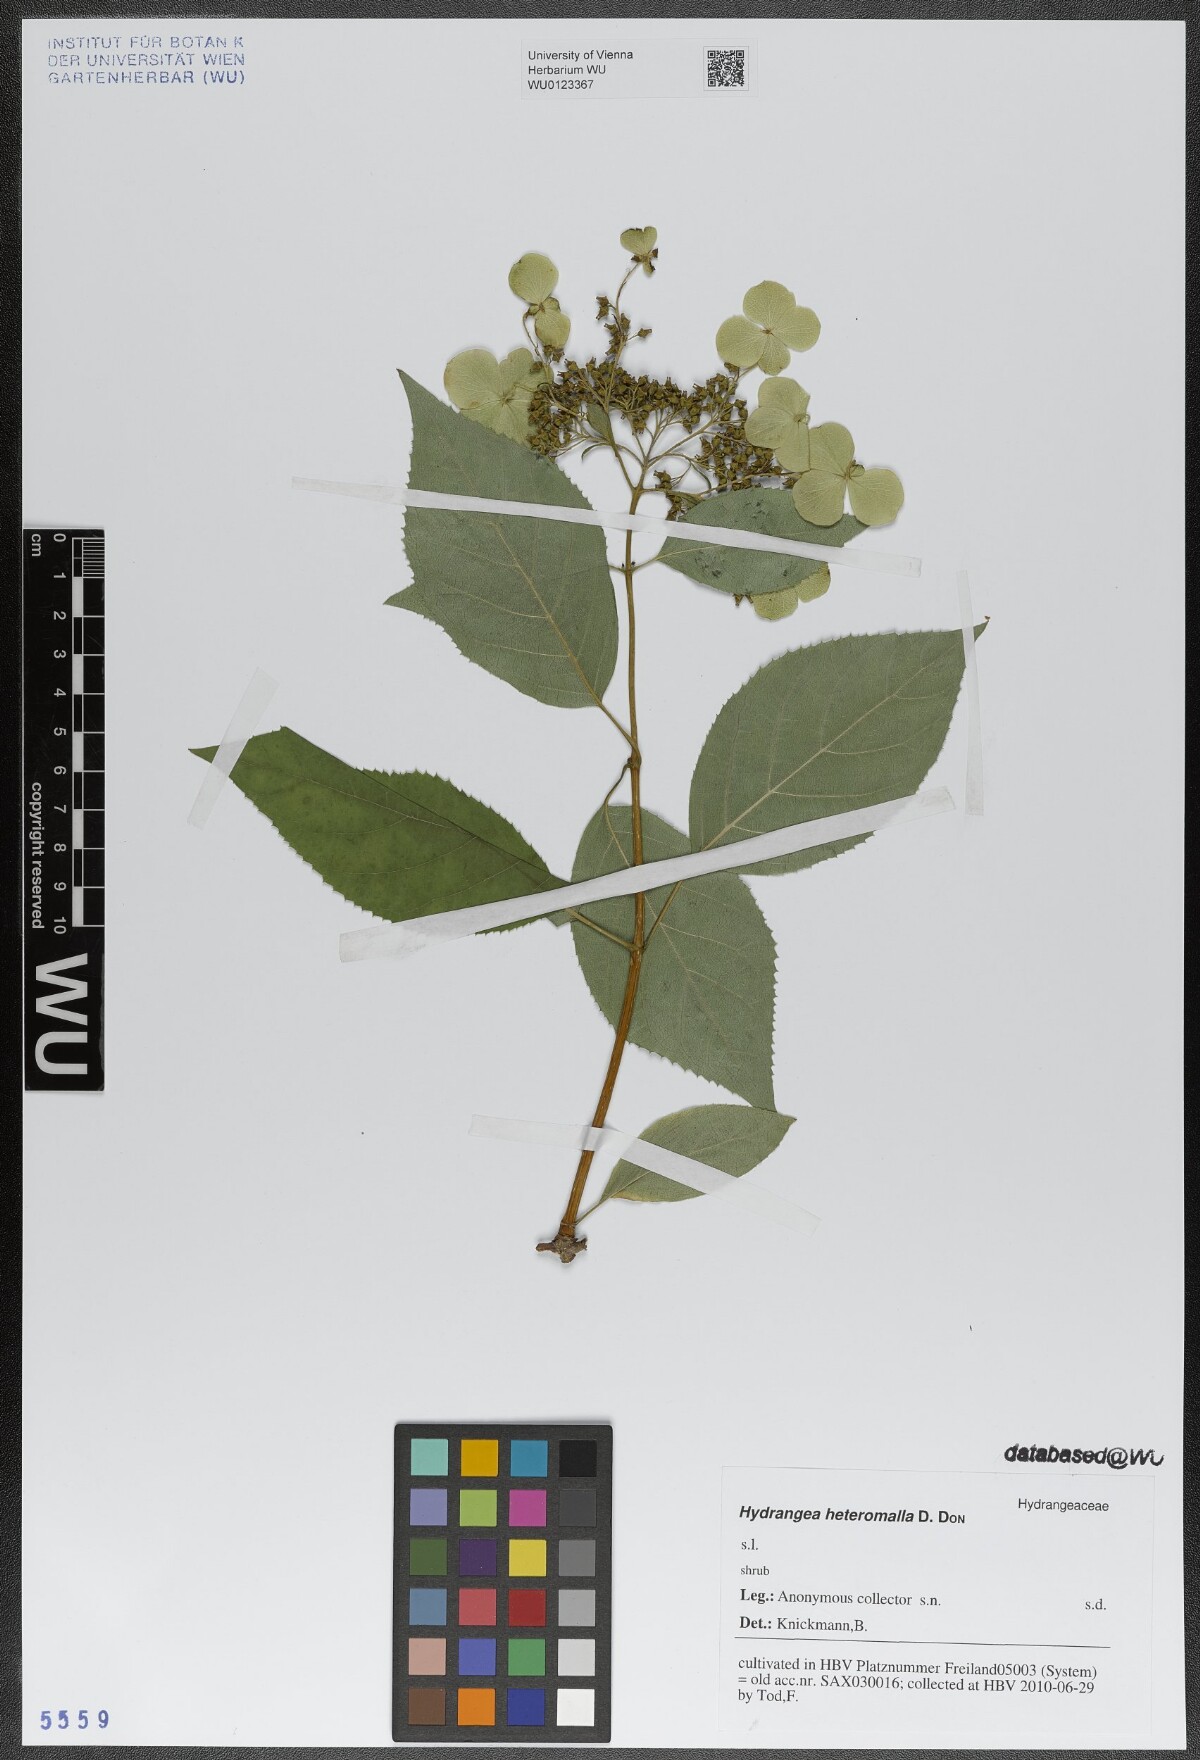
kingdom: Plantae
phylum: Tracheophyta
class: Magnoliopsida
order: Cornales
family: Hydrangeaceae
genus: Hydrangea
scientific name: Hydrangea heteromalla
